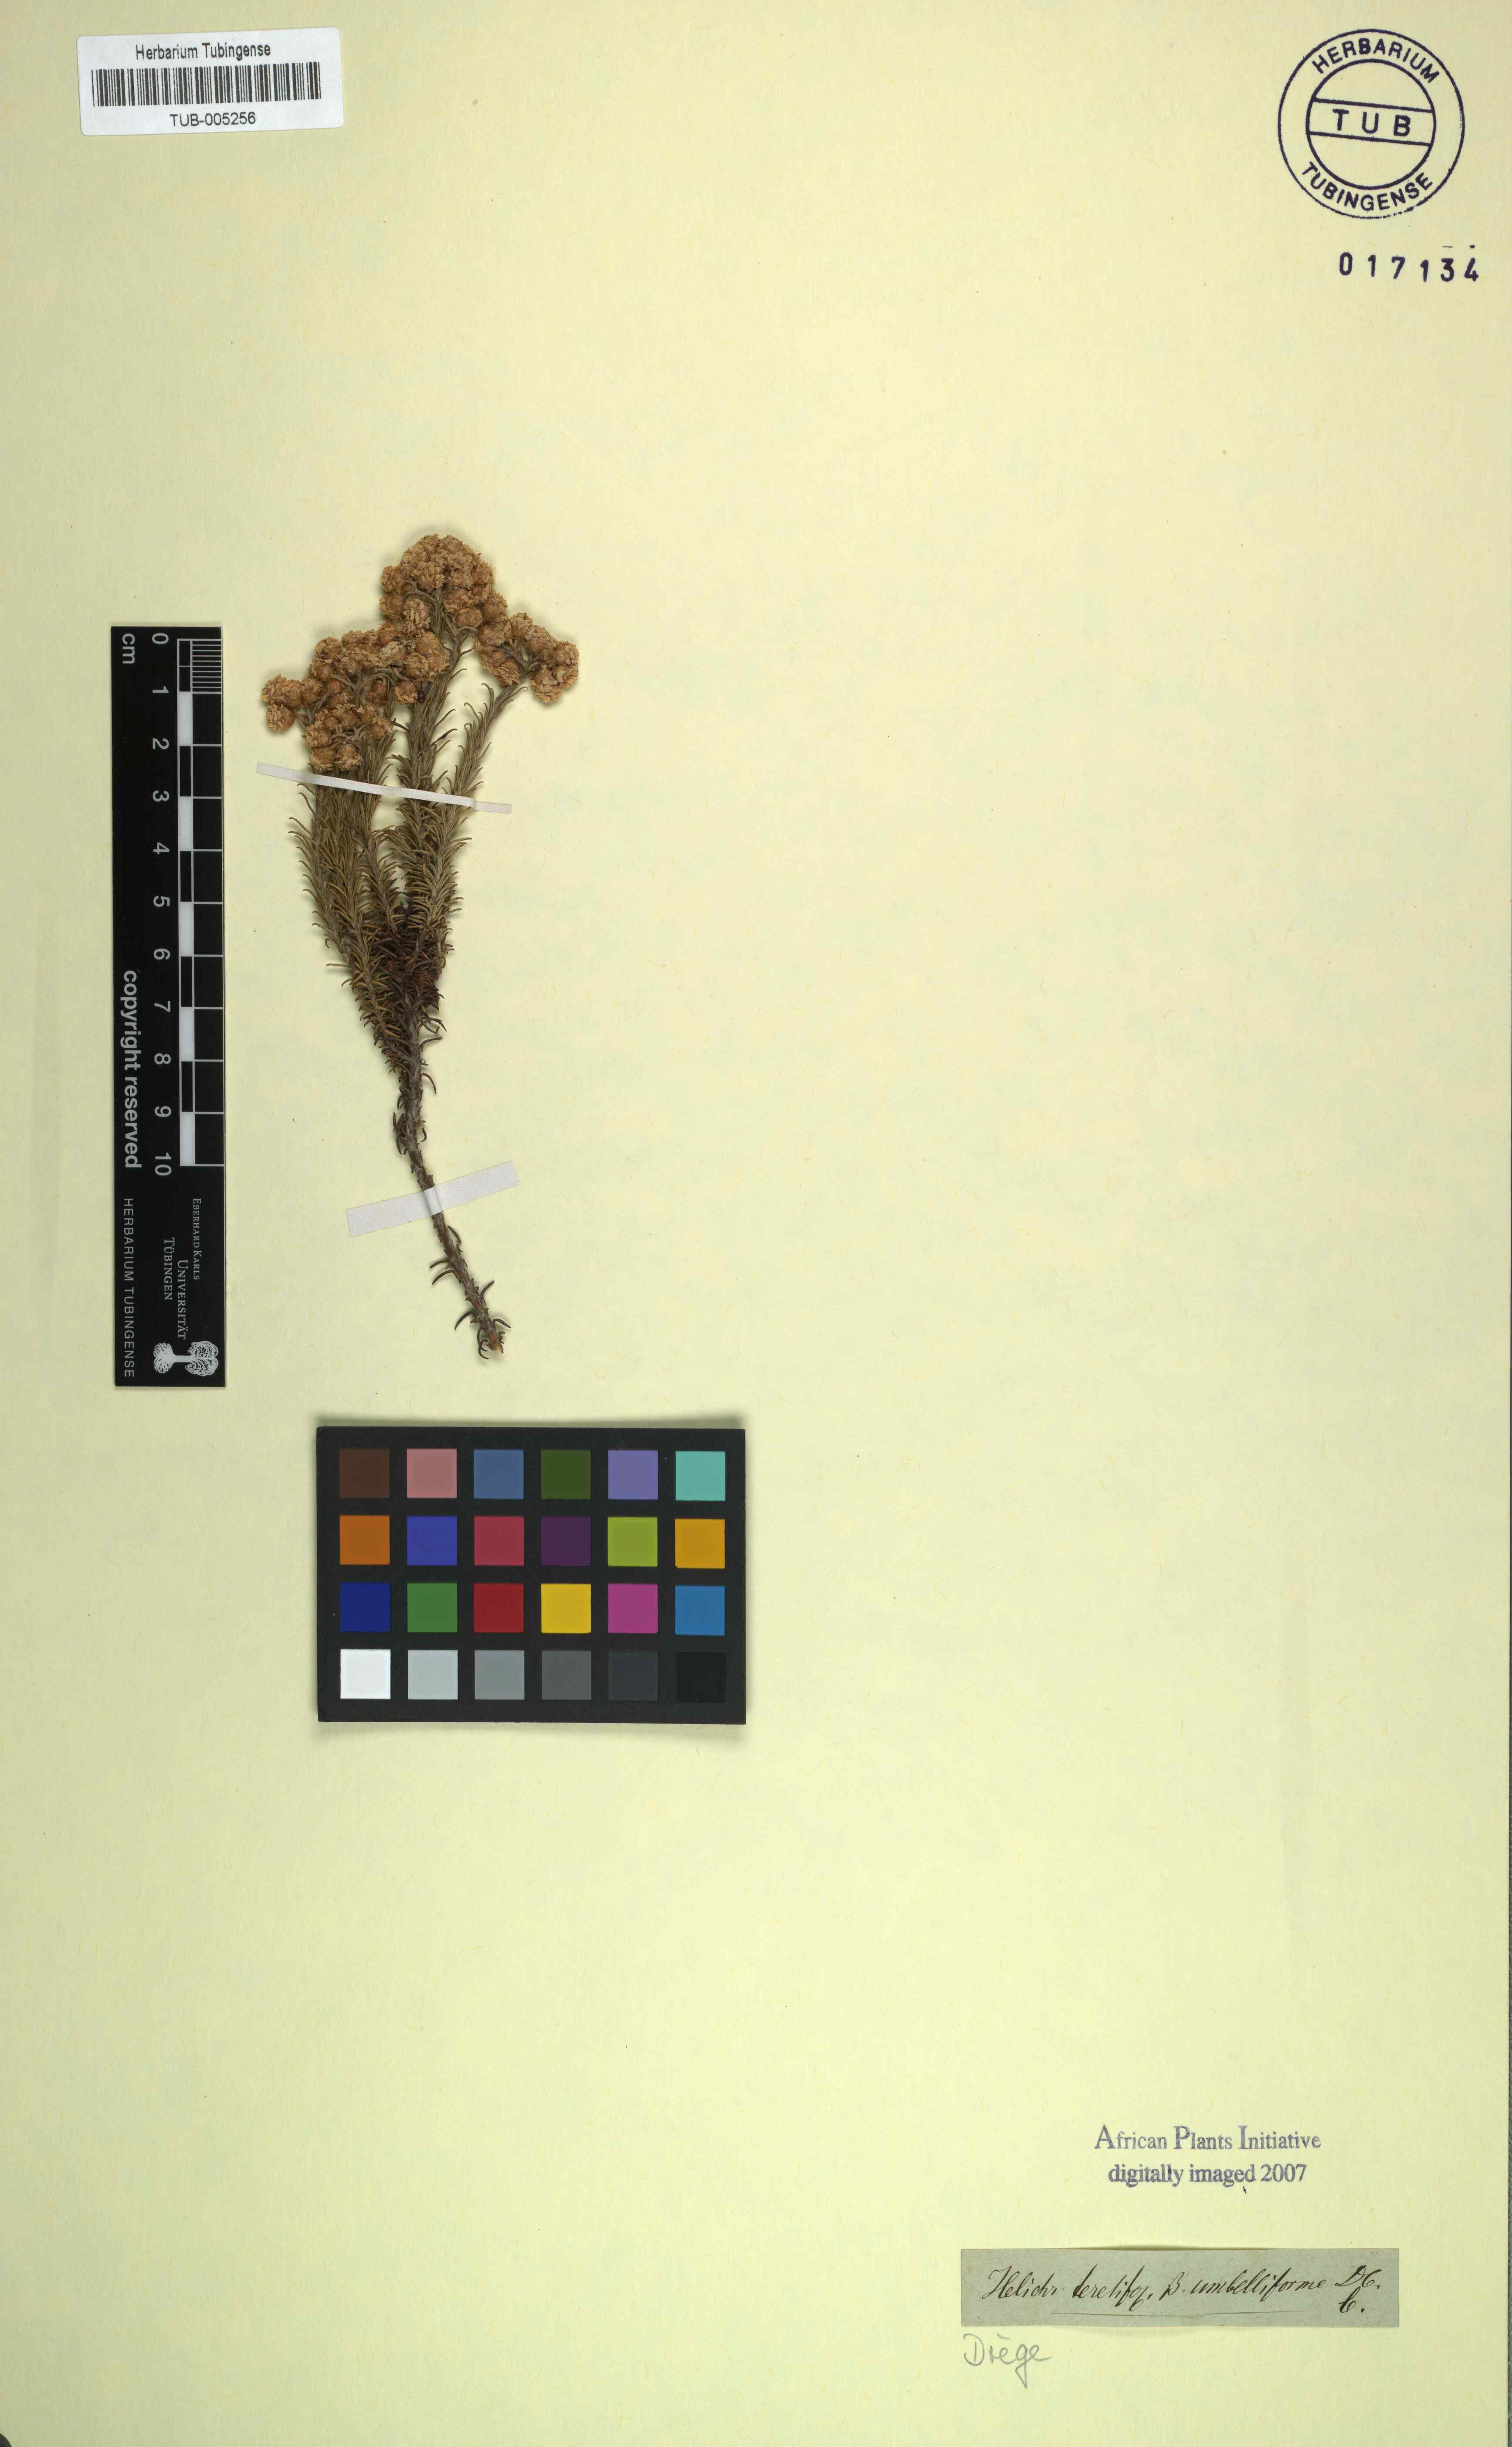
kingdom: Plantae
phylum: Tracheophyta
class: Magnoliopsida
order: Asterales
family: Asteraceae
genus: Helichrysum
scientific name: Helichrysum
